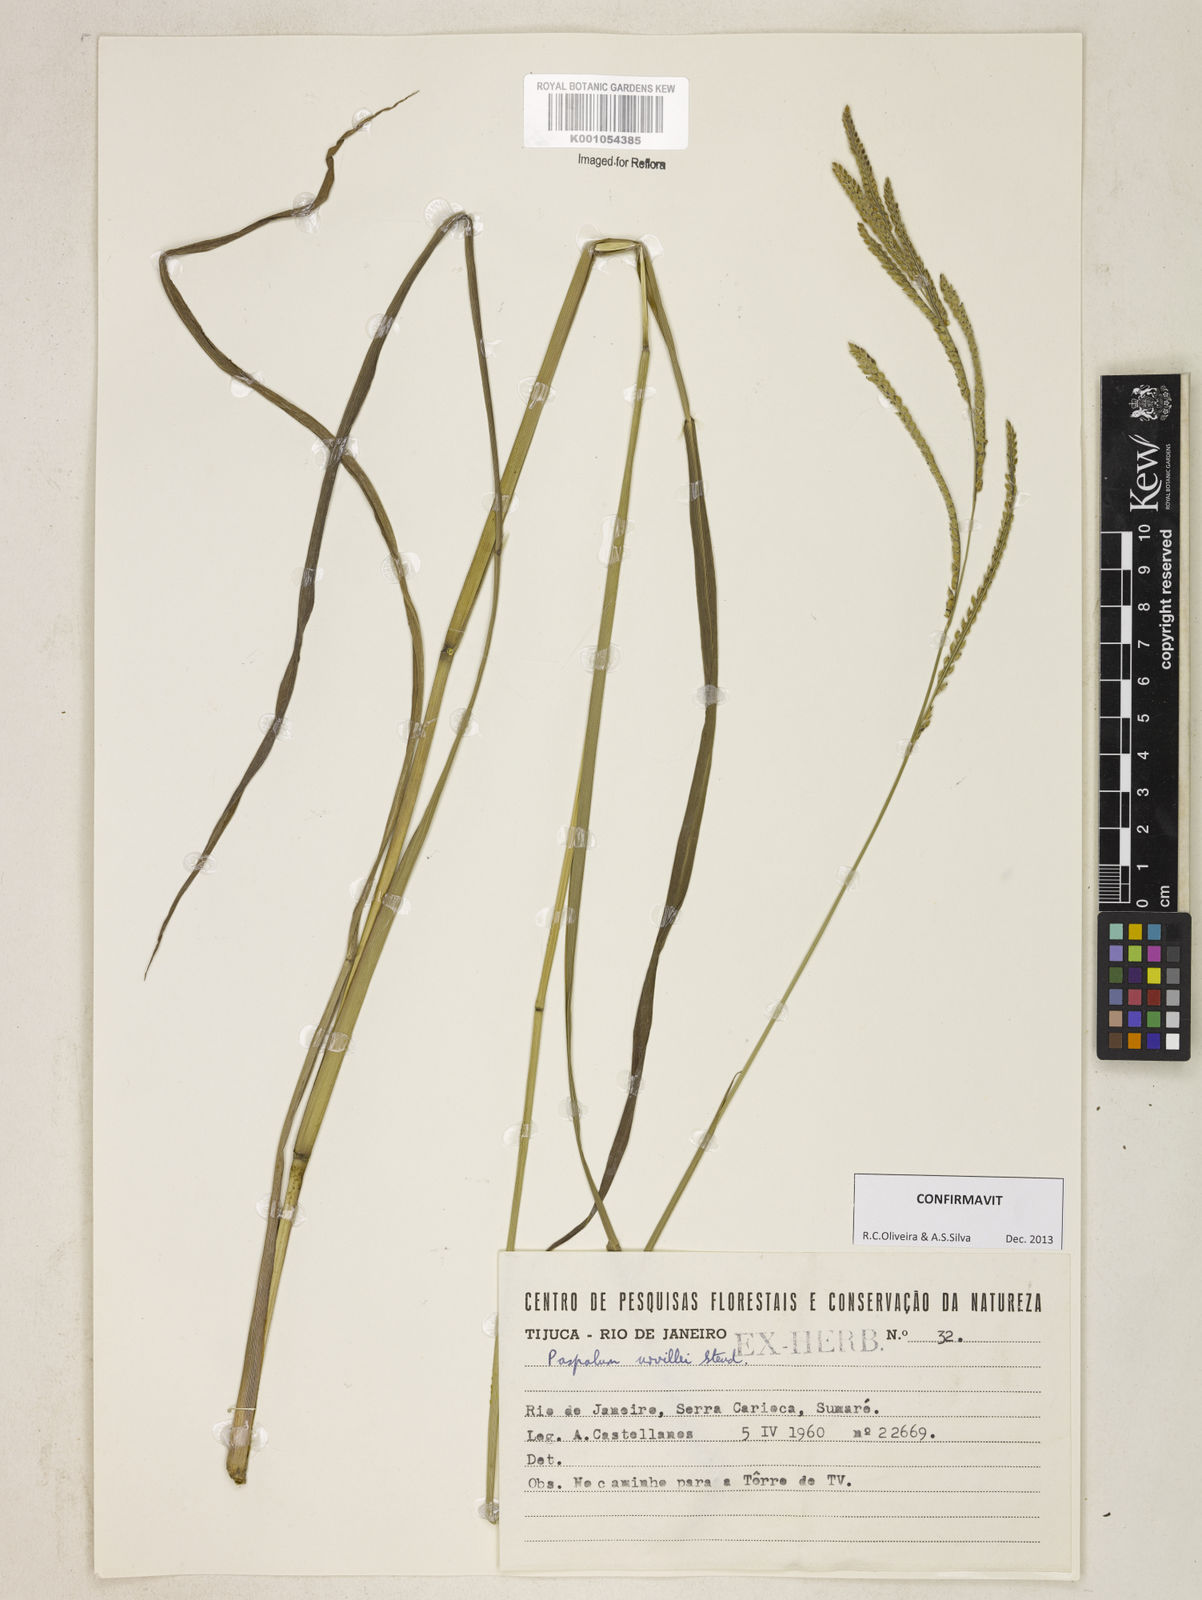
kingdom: Plantae
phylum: Tracheophyta
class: Liliopsida
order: Poales
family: Poaceae
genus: Paspalum
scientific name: Paspalum urvillei
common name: Vasey's grass
